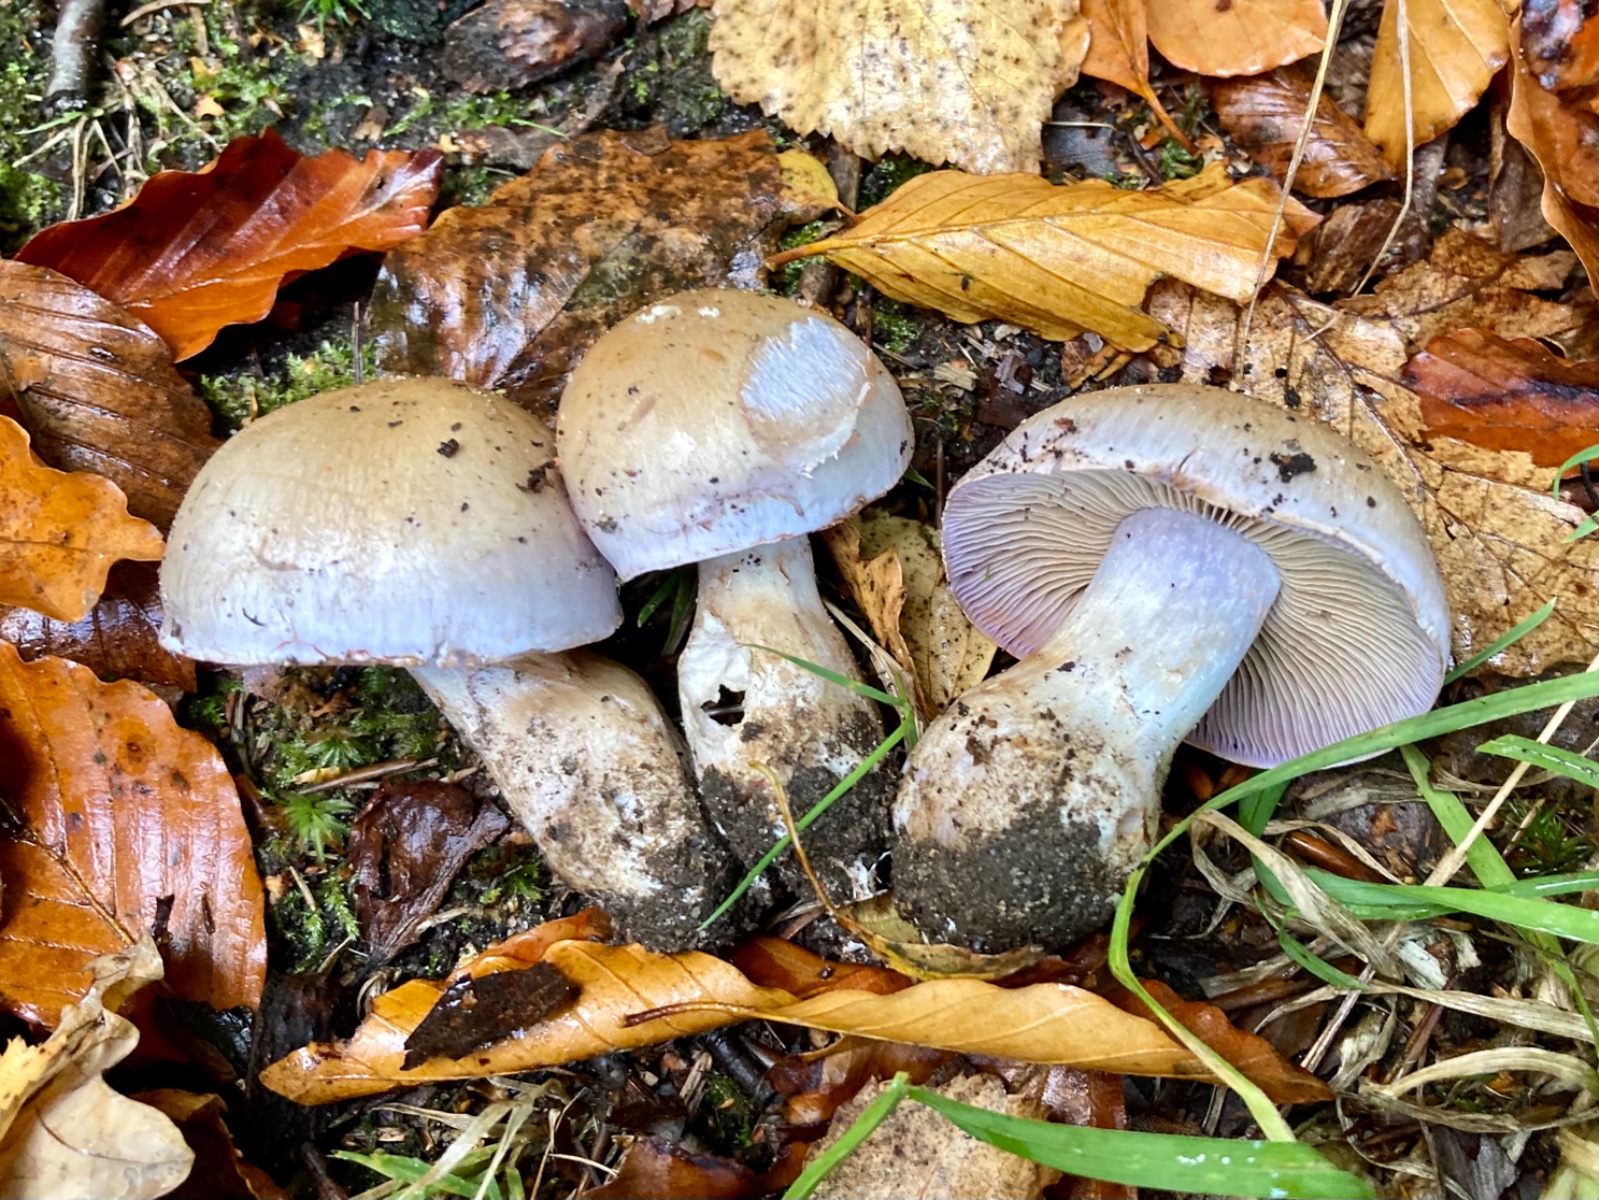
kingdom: Fungi
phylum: Basidiomycota
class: Agaricomycetes
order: Agaricales
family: Cortinariaceae
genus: Cortinarius
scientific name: Cortinarius largus
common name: violetrandet slørhat
